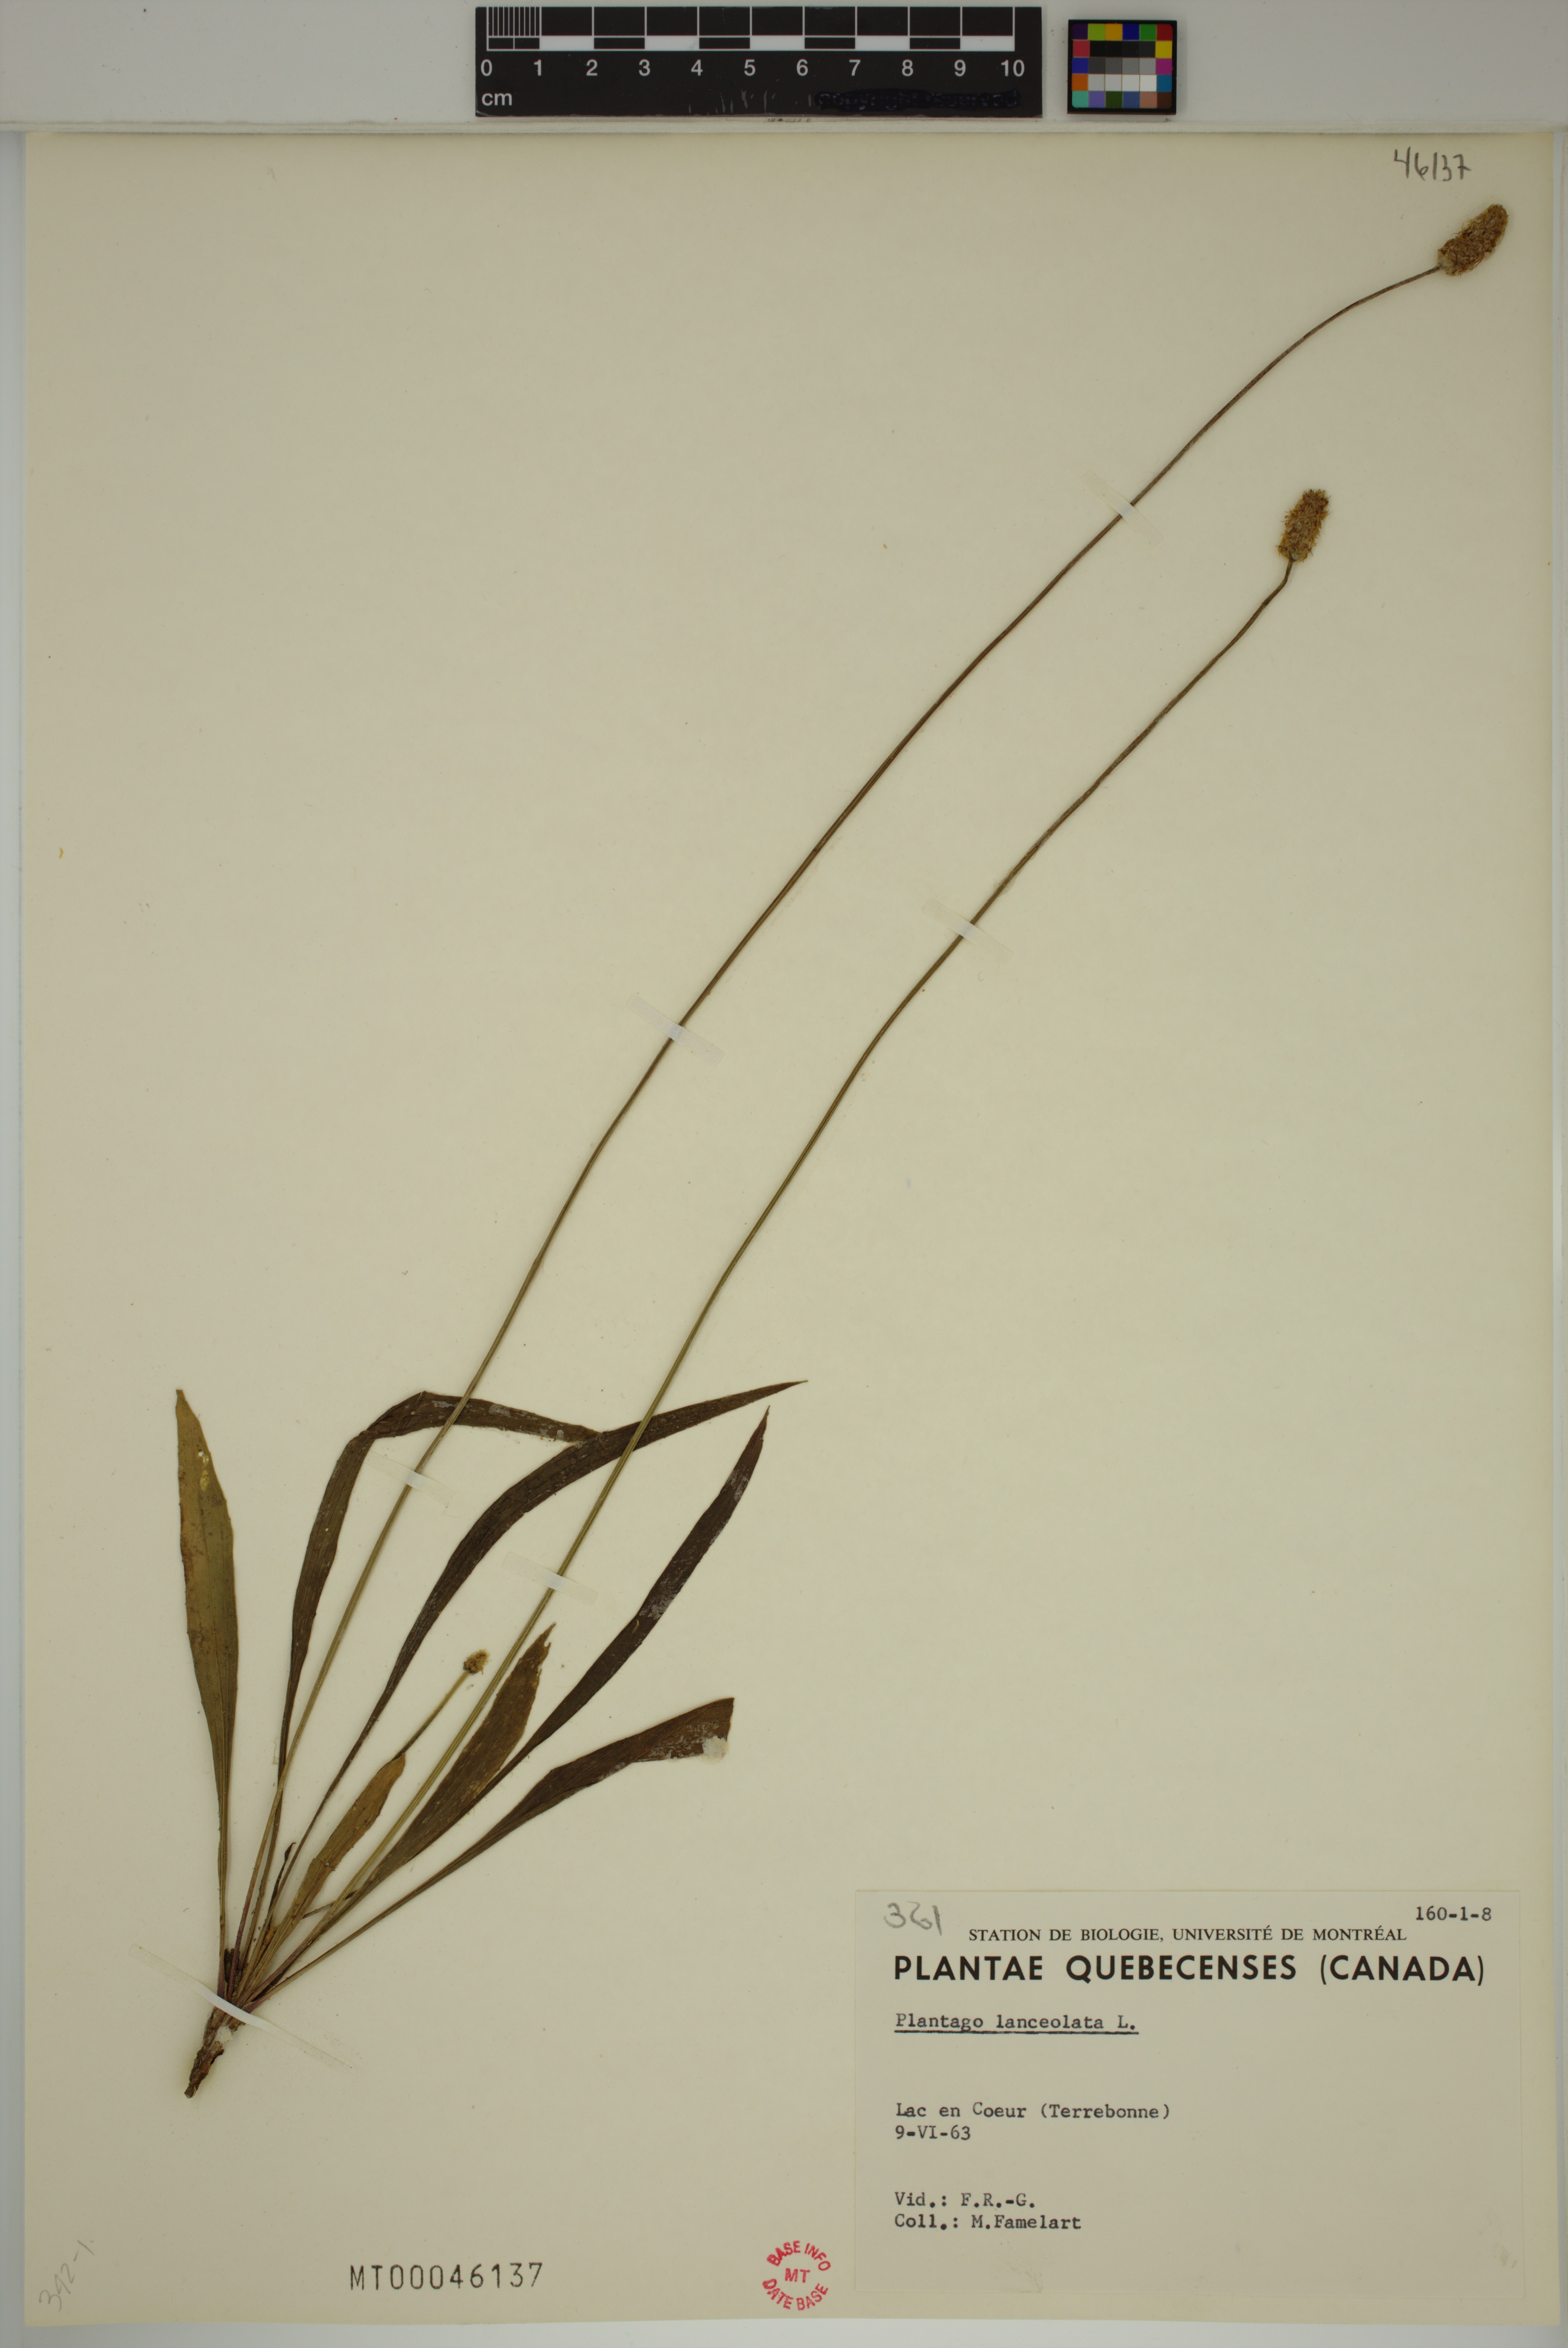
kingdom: Plantae
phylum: Tracheophyta
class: Magnoliopsida
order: Lamiales
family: Plantaginaceae
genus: Plantago
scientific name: Plantago lanceolata
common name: Ribwort plantain
